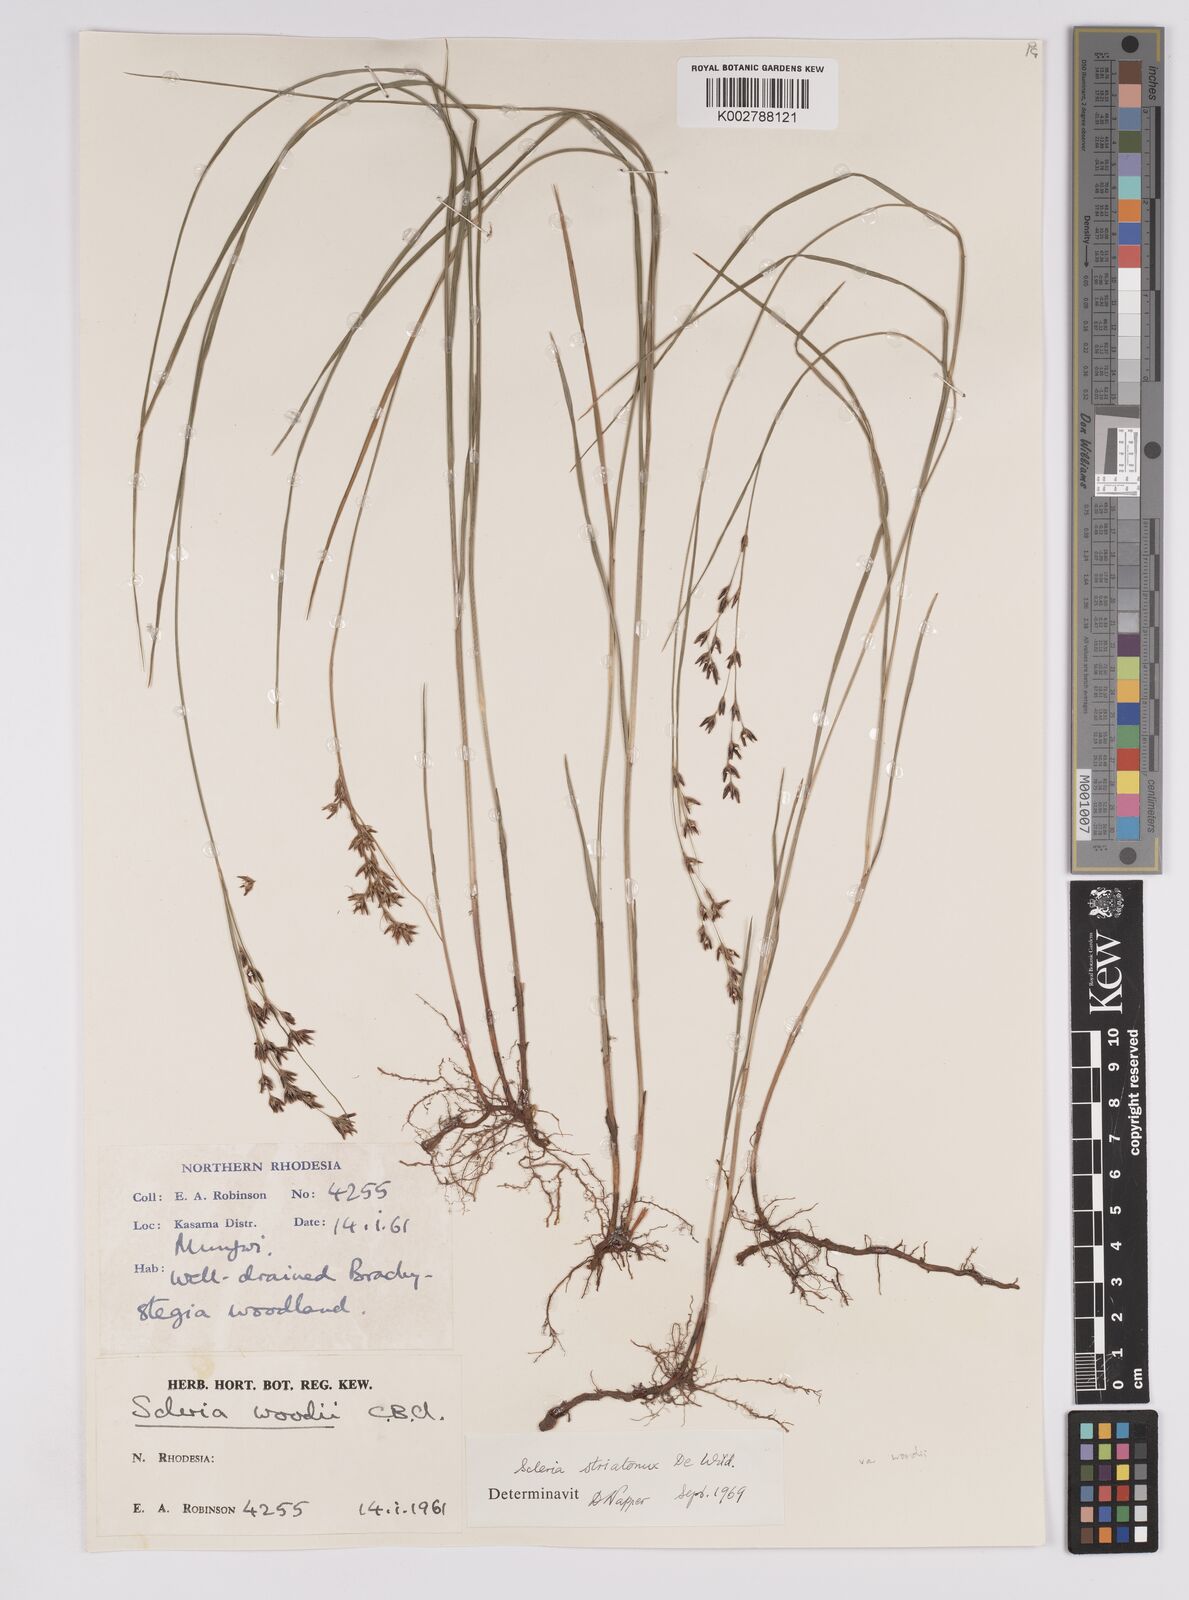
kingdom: Plantae
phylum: Tracheophyta
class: Liliopsida
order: Poales
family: Cyperaceae
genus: Scleria
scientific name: Scleria woodii
